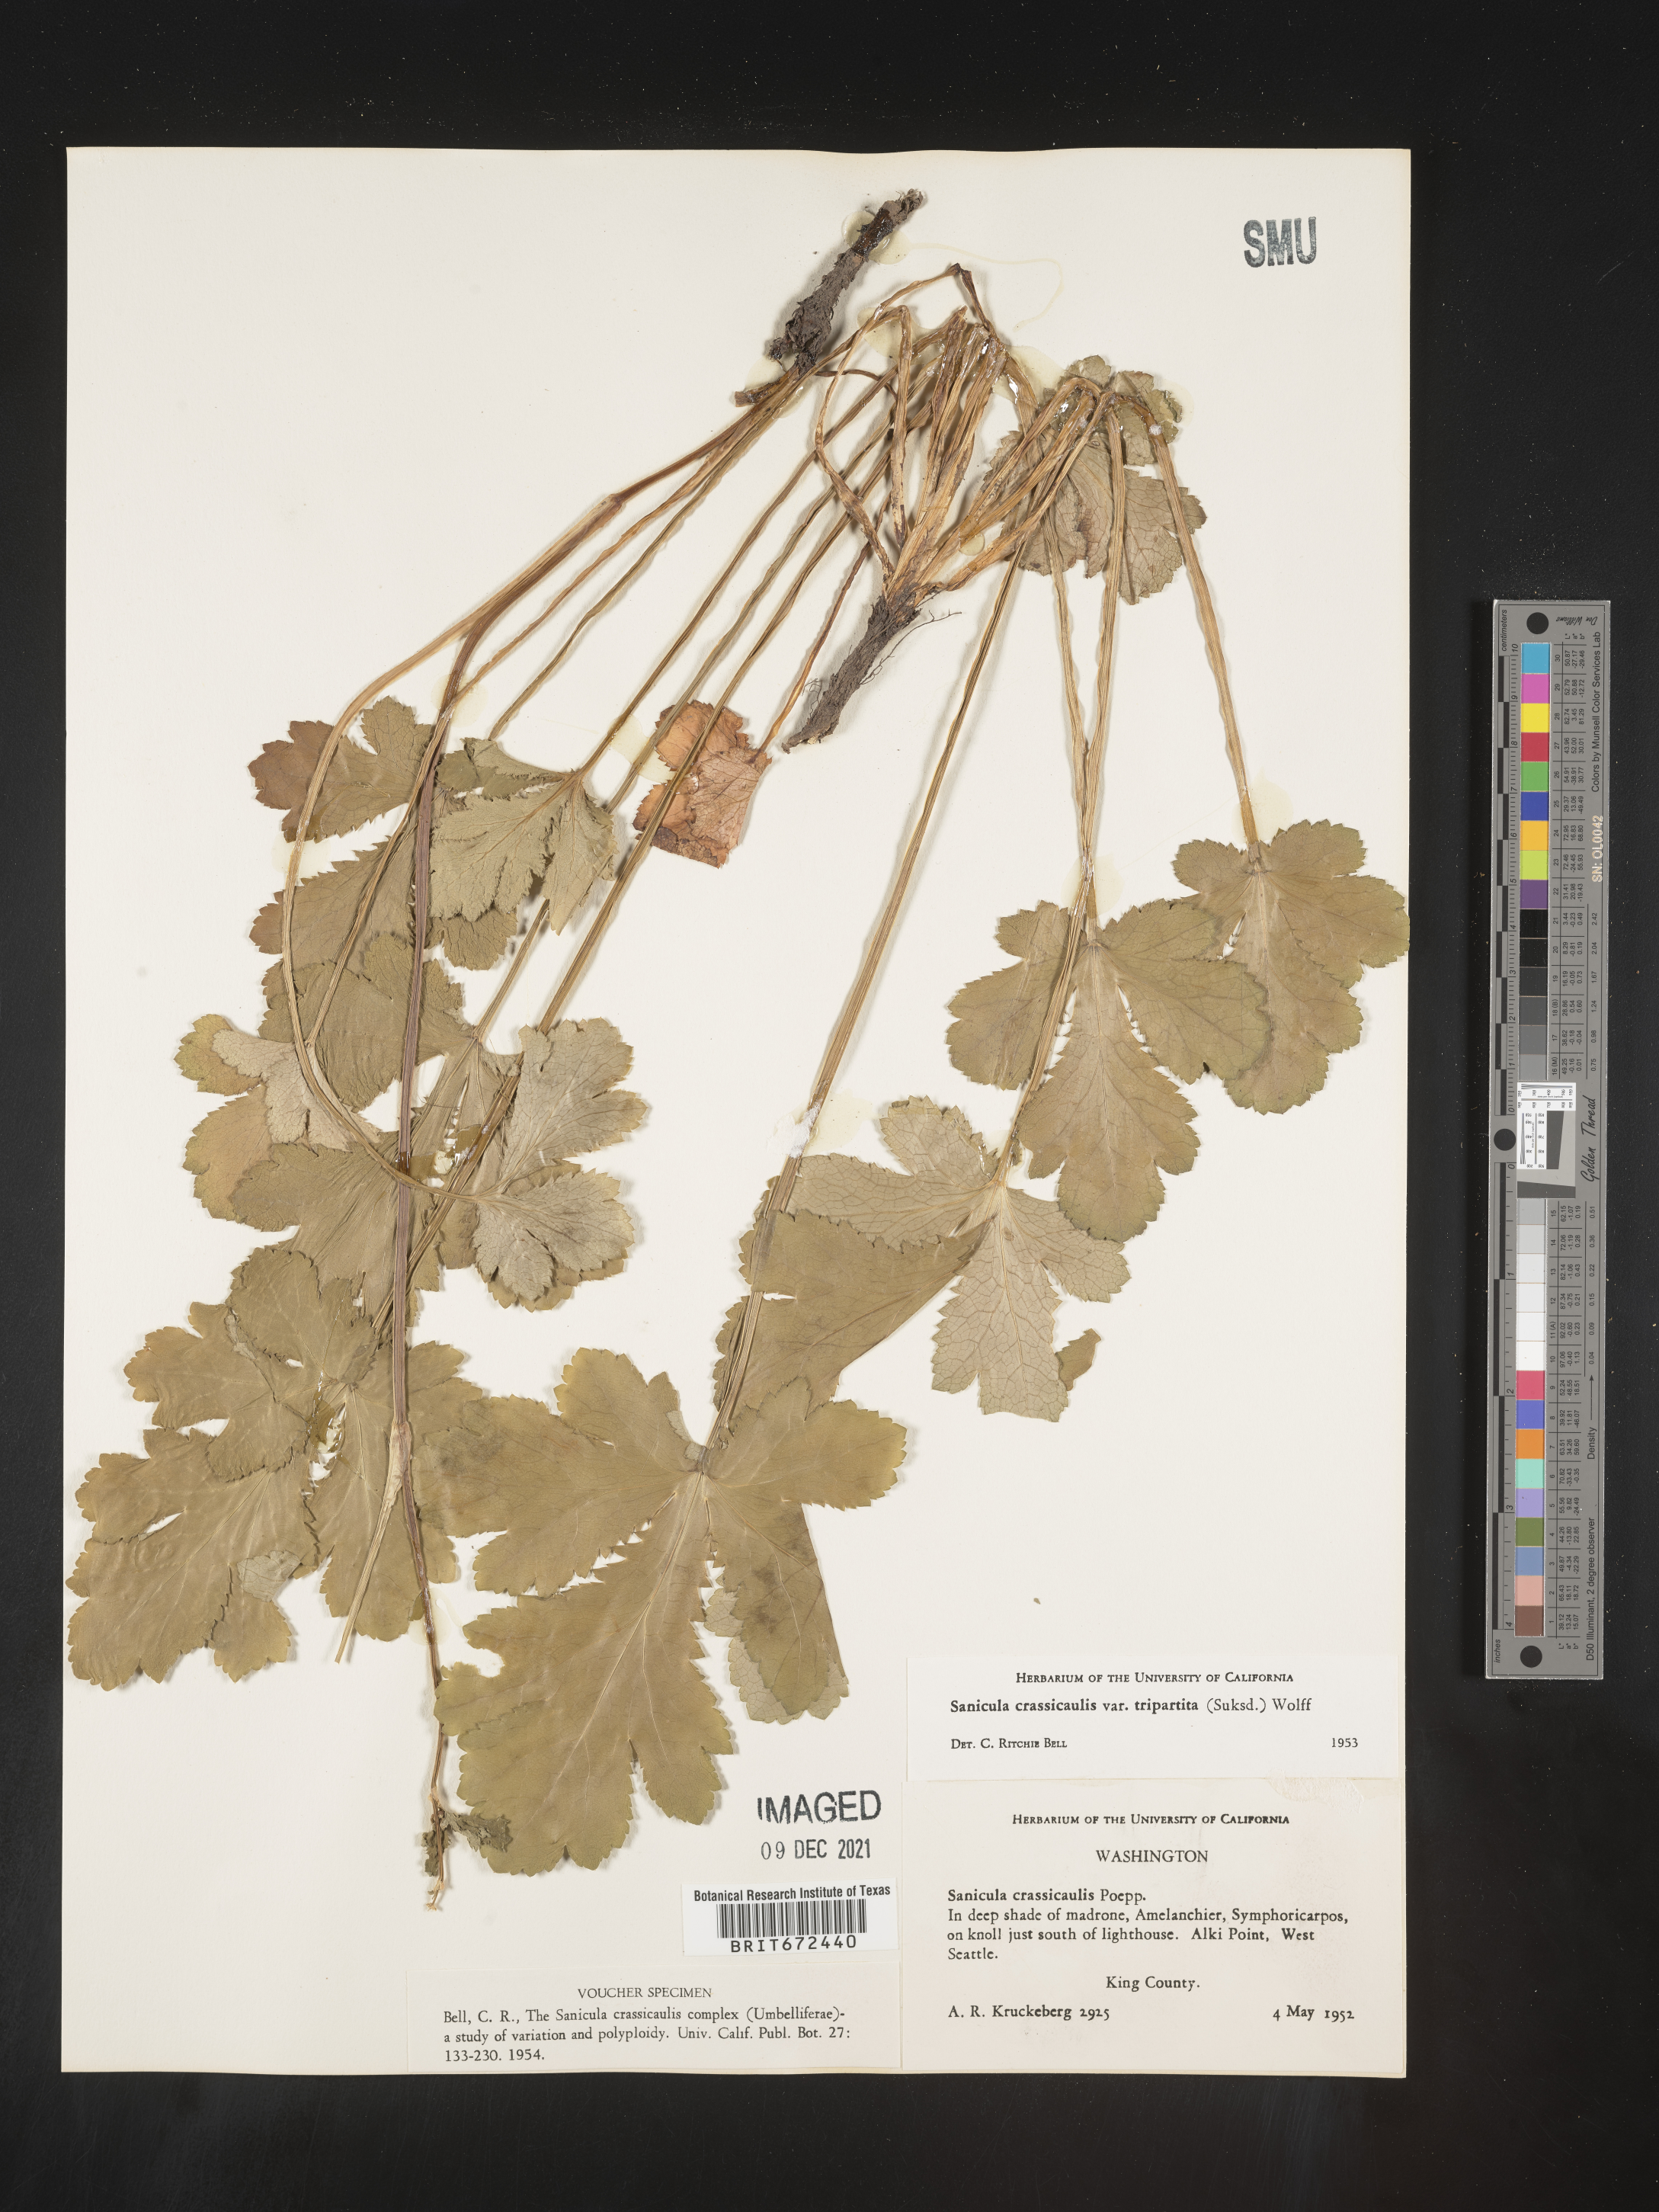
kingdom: Plantae
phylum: Tracheophyta
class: Magnoliopsida
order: Apiales
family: Apiaceae
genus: Sanicula
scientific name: Sanicula crassicaulis
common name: Western snakeroot
